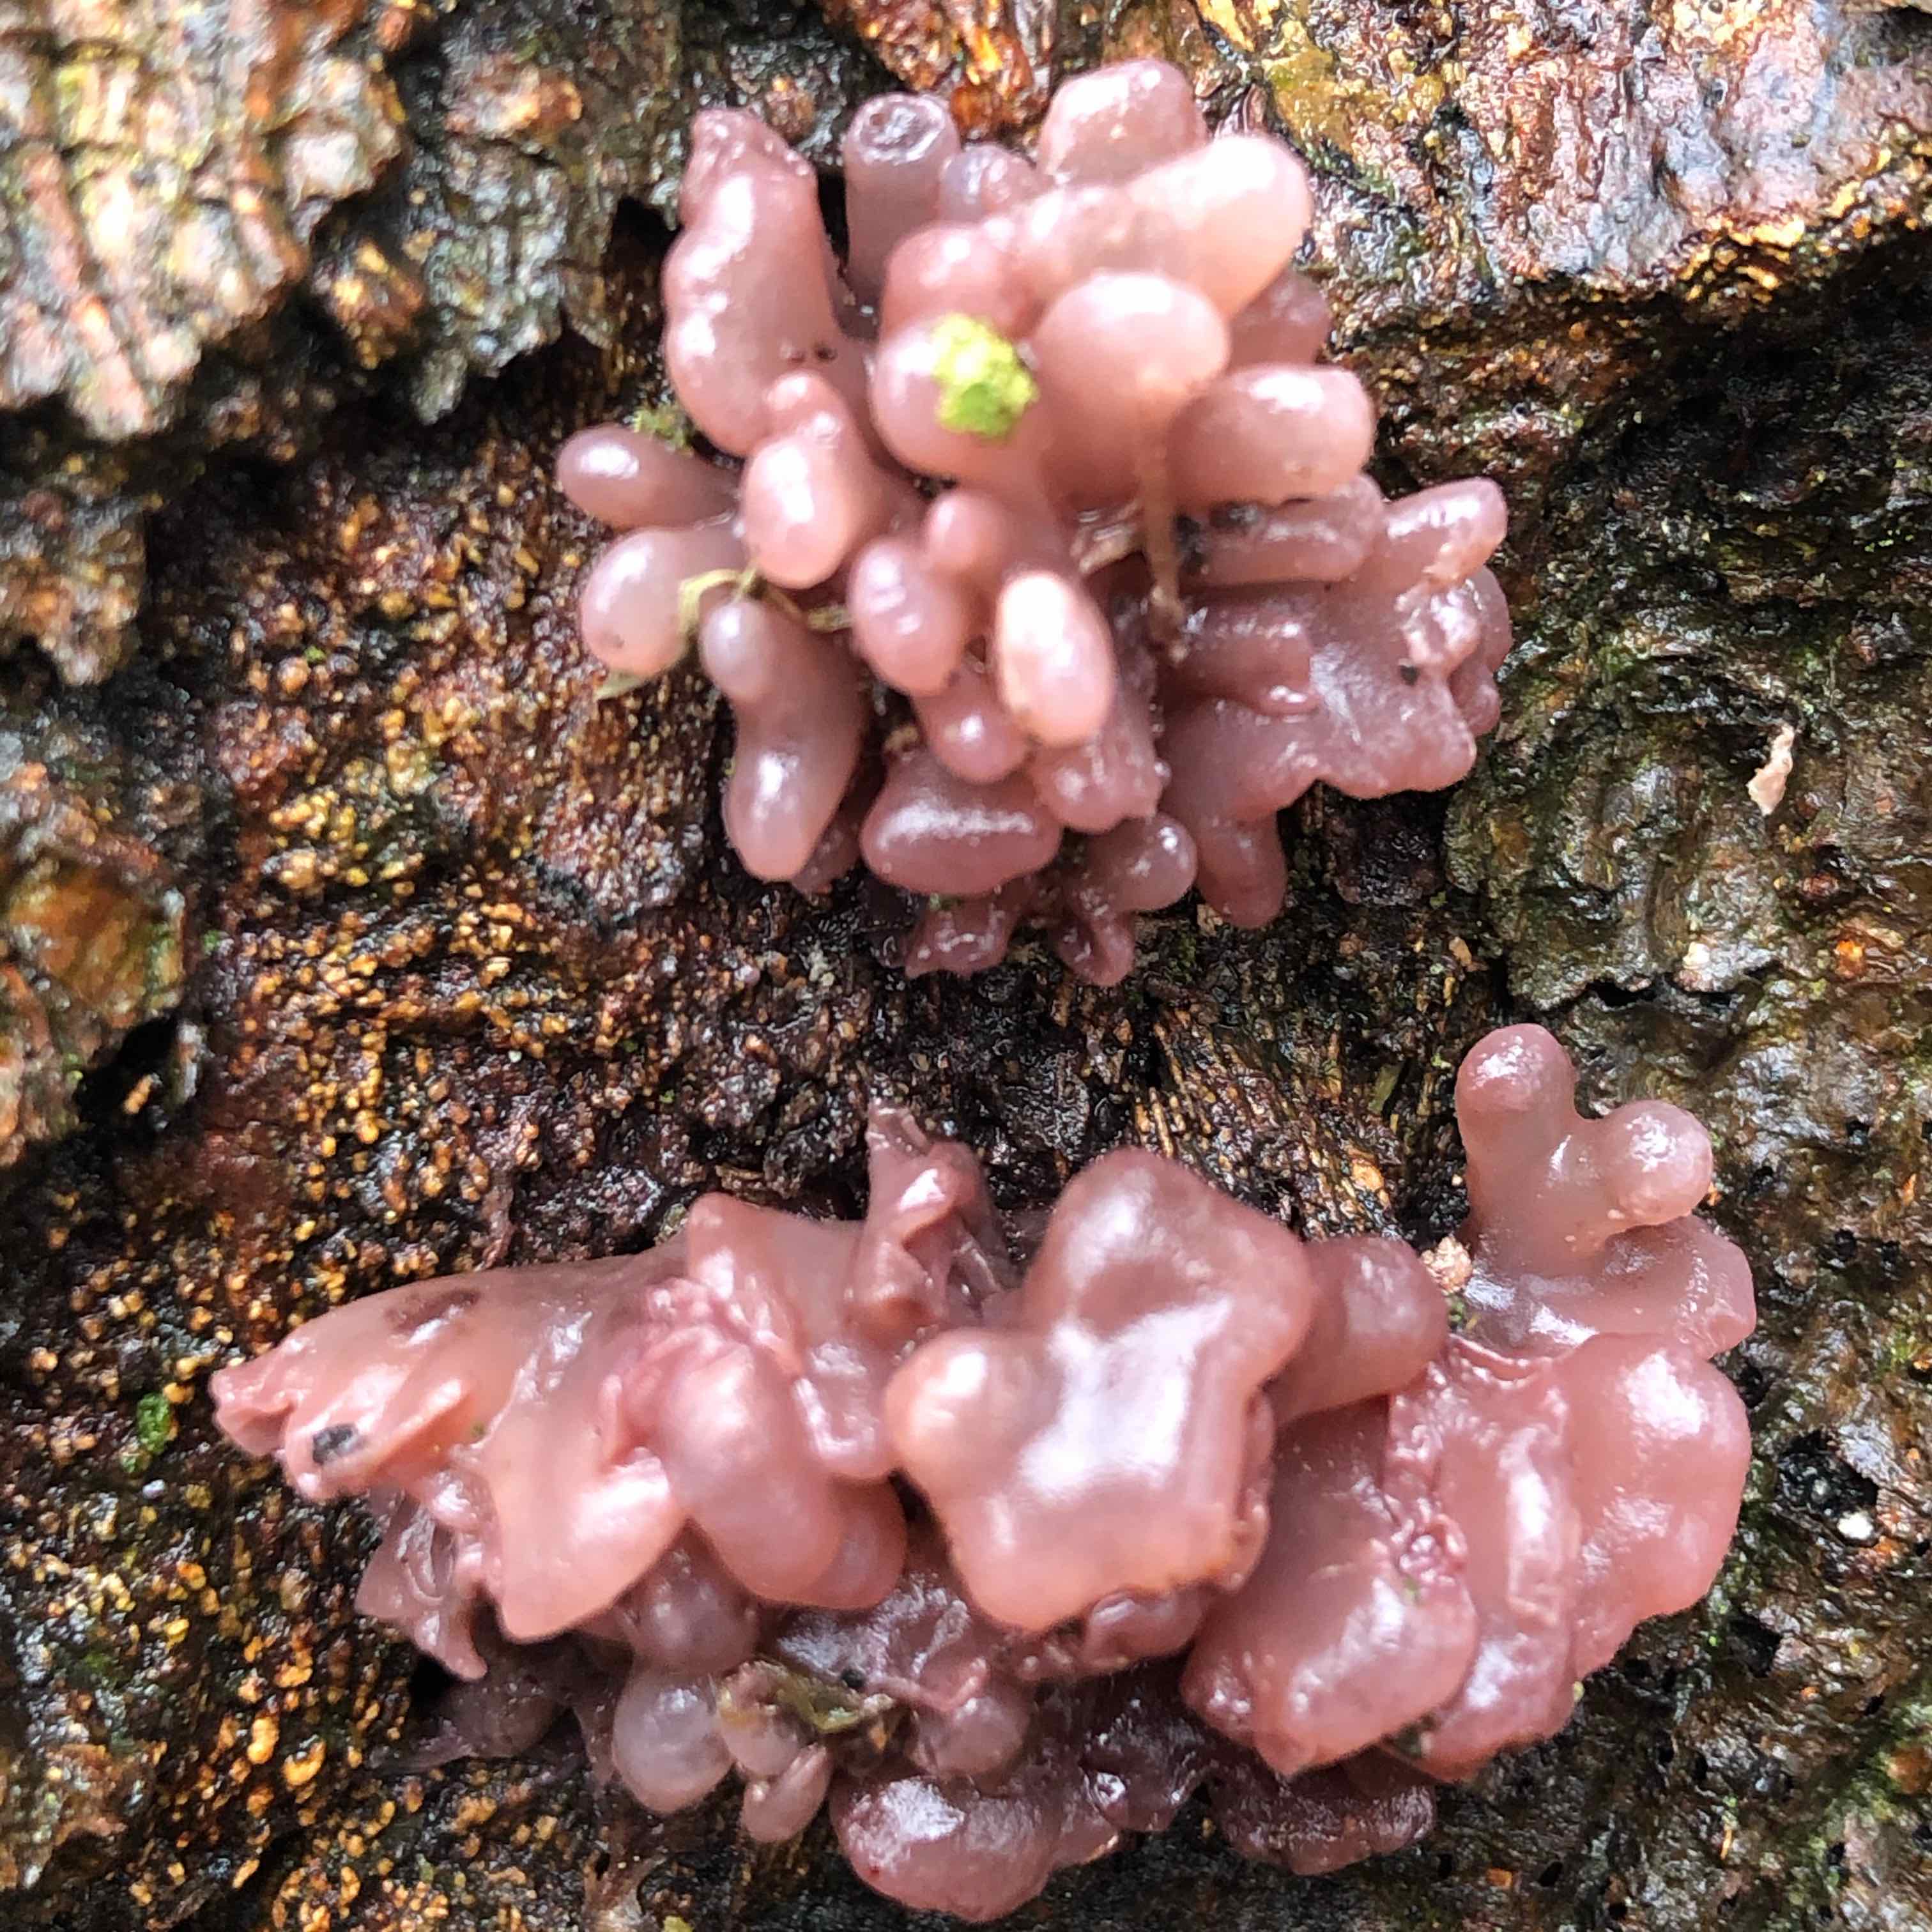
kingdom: Fungi
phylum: Ascomycota
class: Leotiomycetes
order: Helotiales
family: Gelatinodiscaceae
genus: Ascocoryne
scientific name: Ascocoryne sarcoides
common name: rødlilla sejskive
